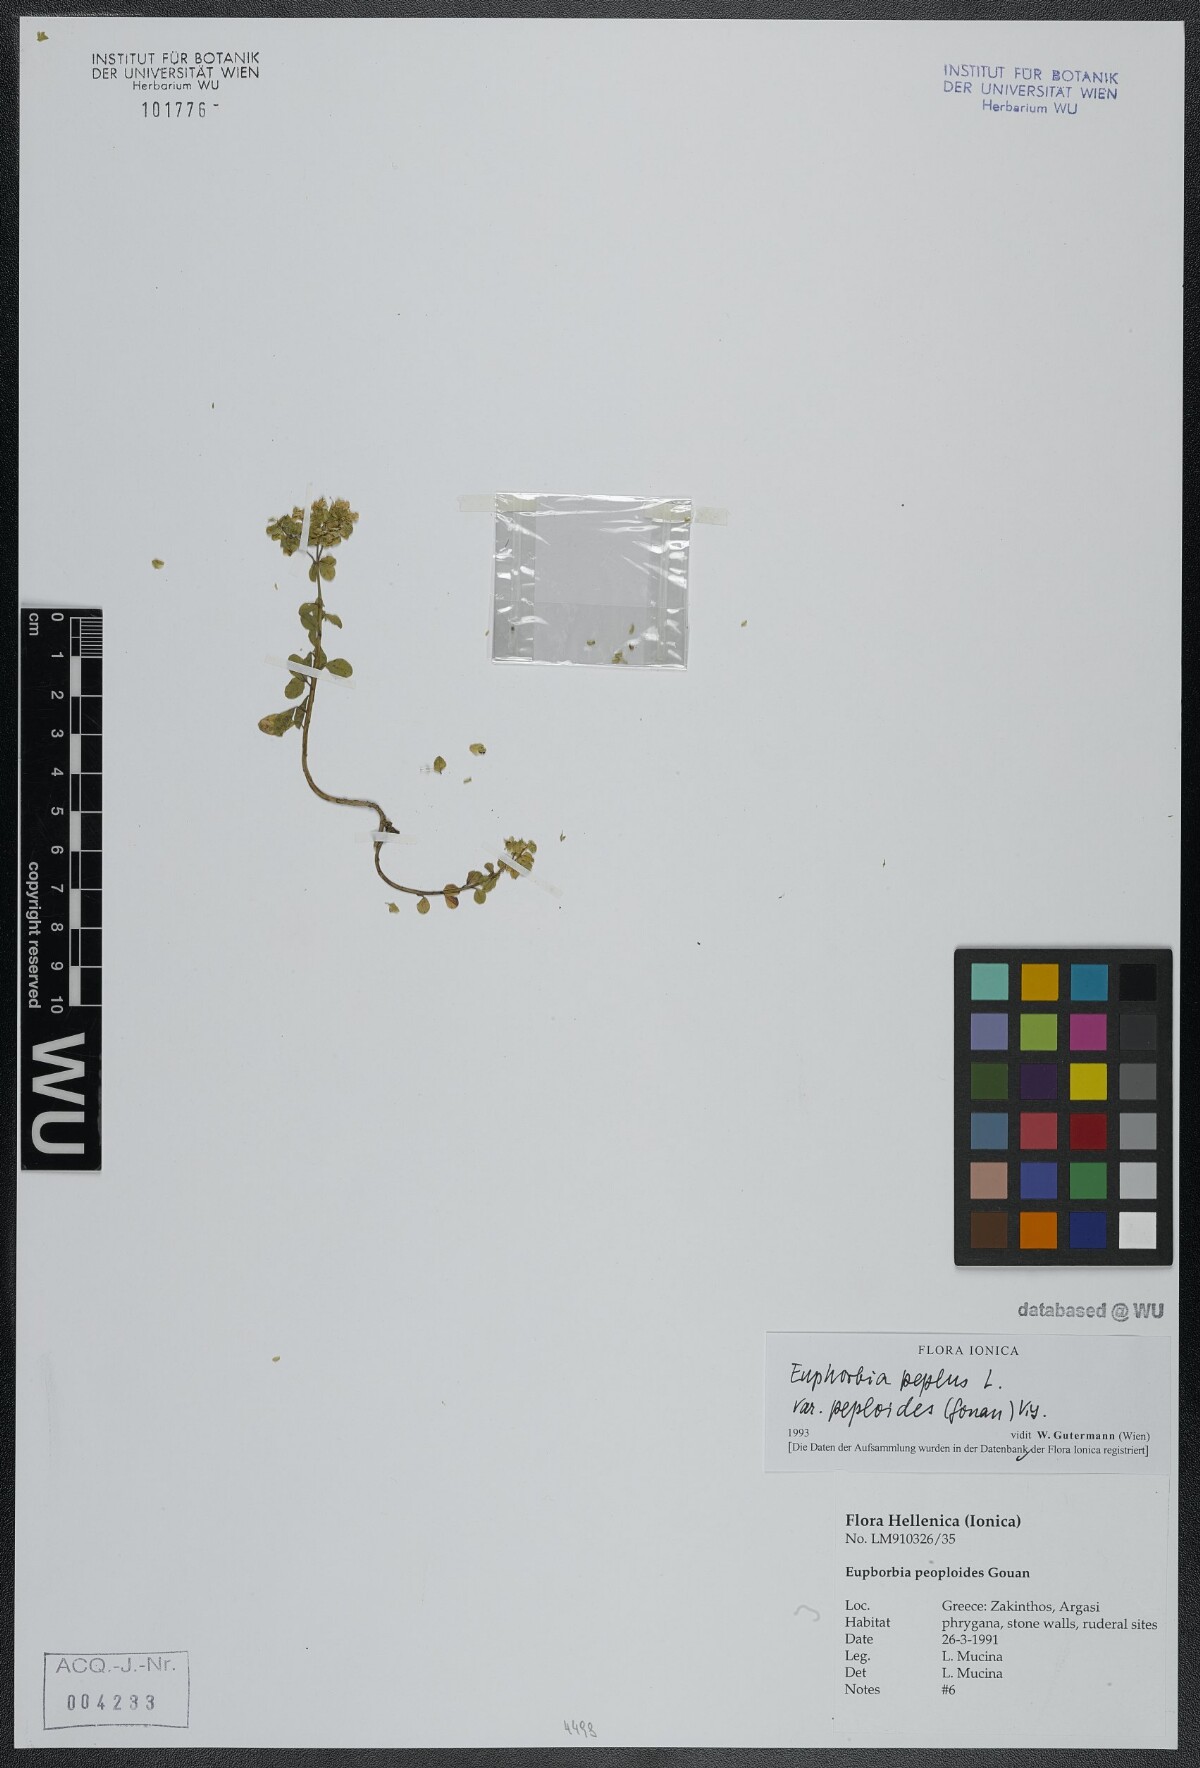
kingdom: Plantae
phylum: Tracheophyta
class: Magnoliopsida
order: Malpighiales
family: Euphorbiaceae
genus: Euphorbia
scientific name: Euphorbia peplus
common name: Petty spurge
